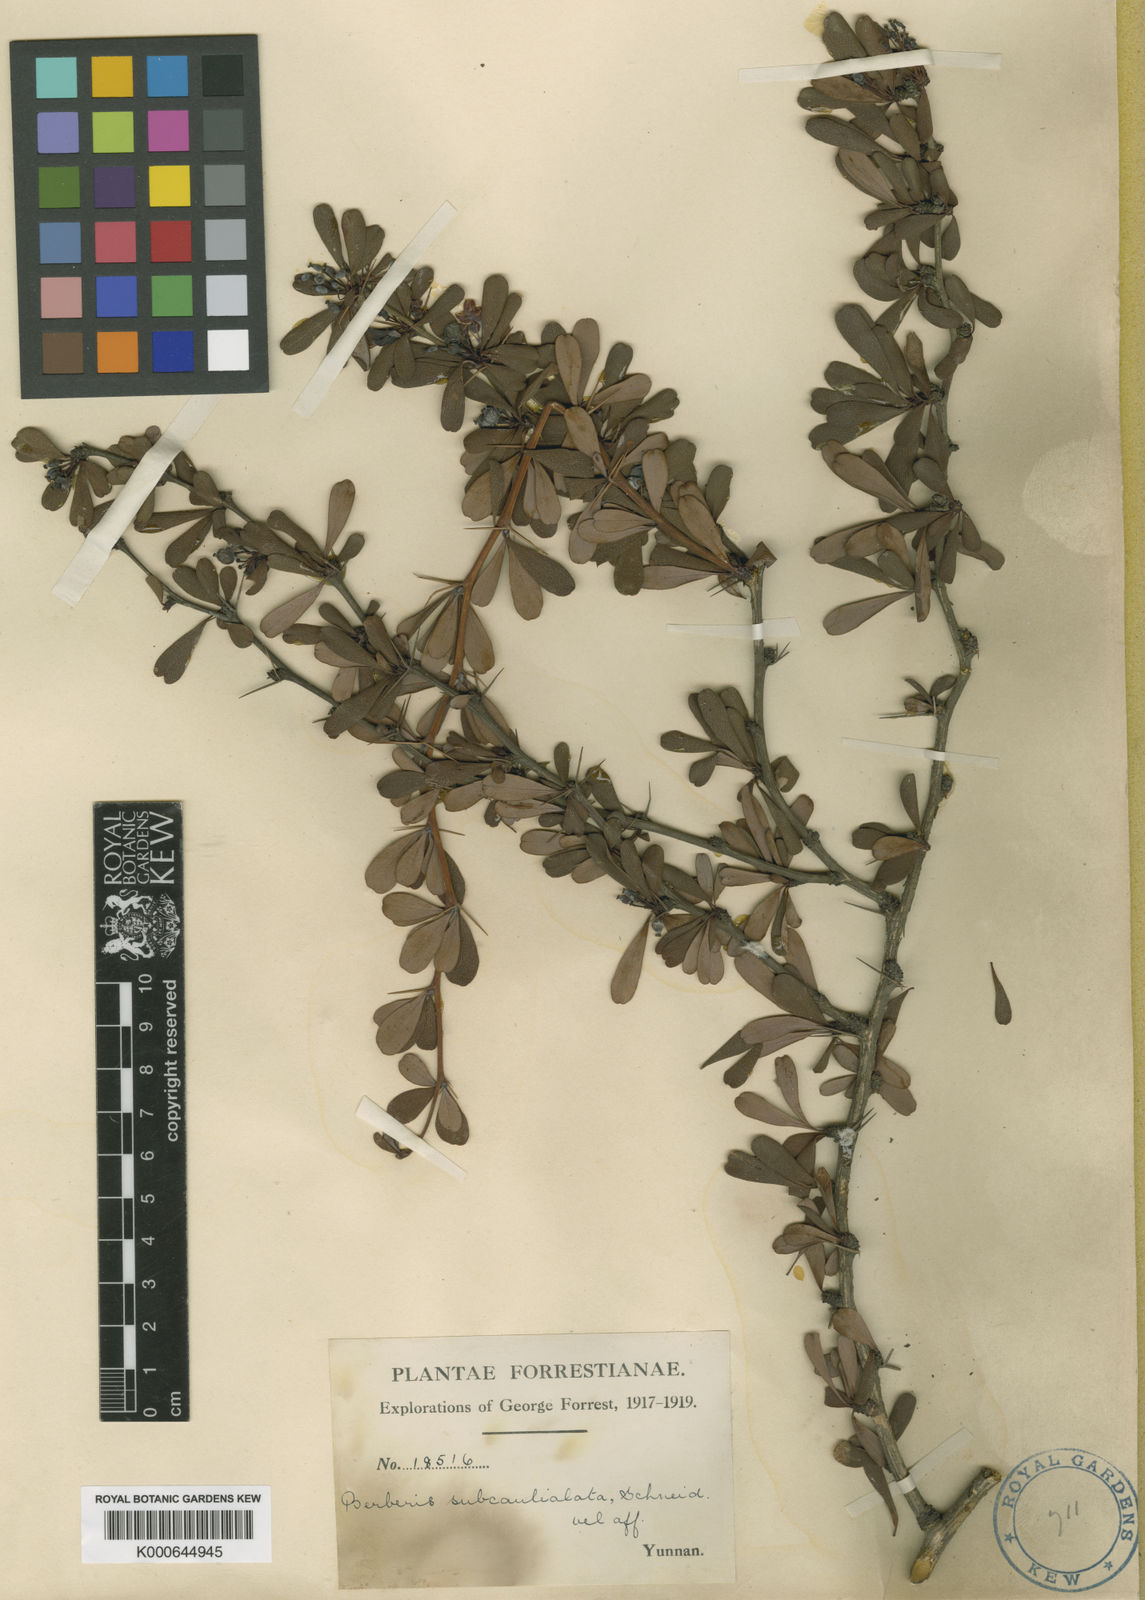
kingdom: Plantae
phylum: Tracheophyta
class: Magnoliopsida
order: Ranunculales
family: Berberidaceae
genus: Berberis
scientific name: Berberis wilsoniae
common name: Mrs wilson's barberry
